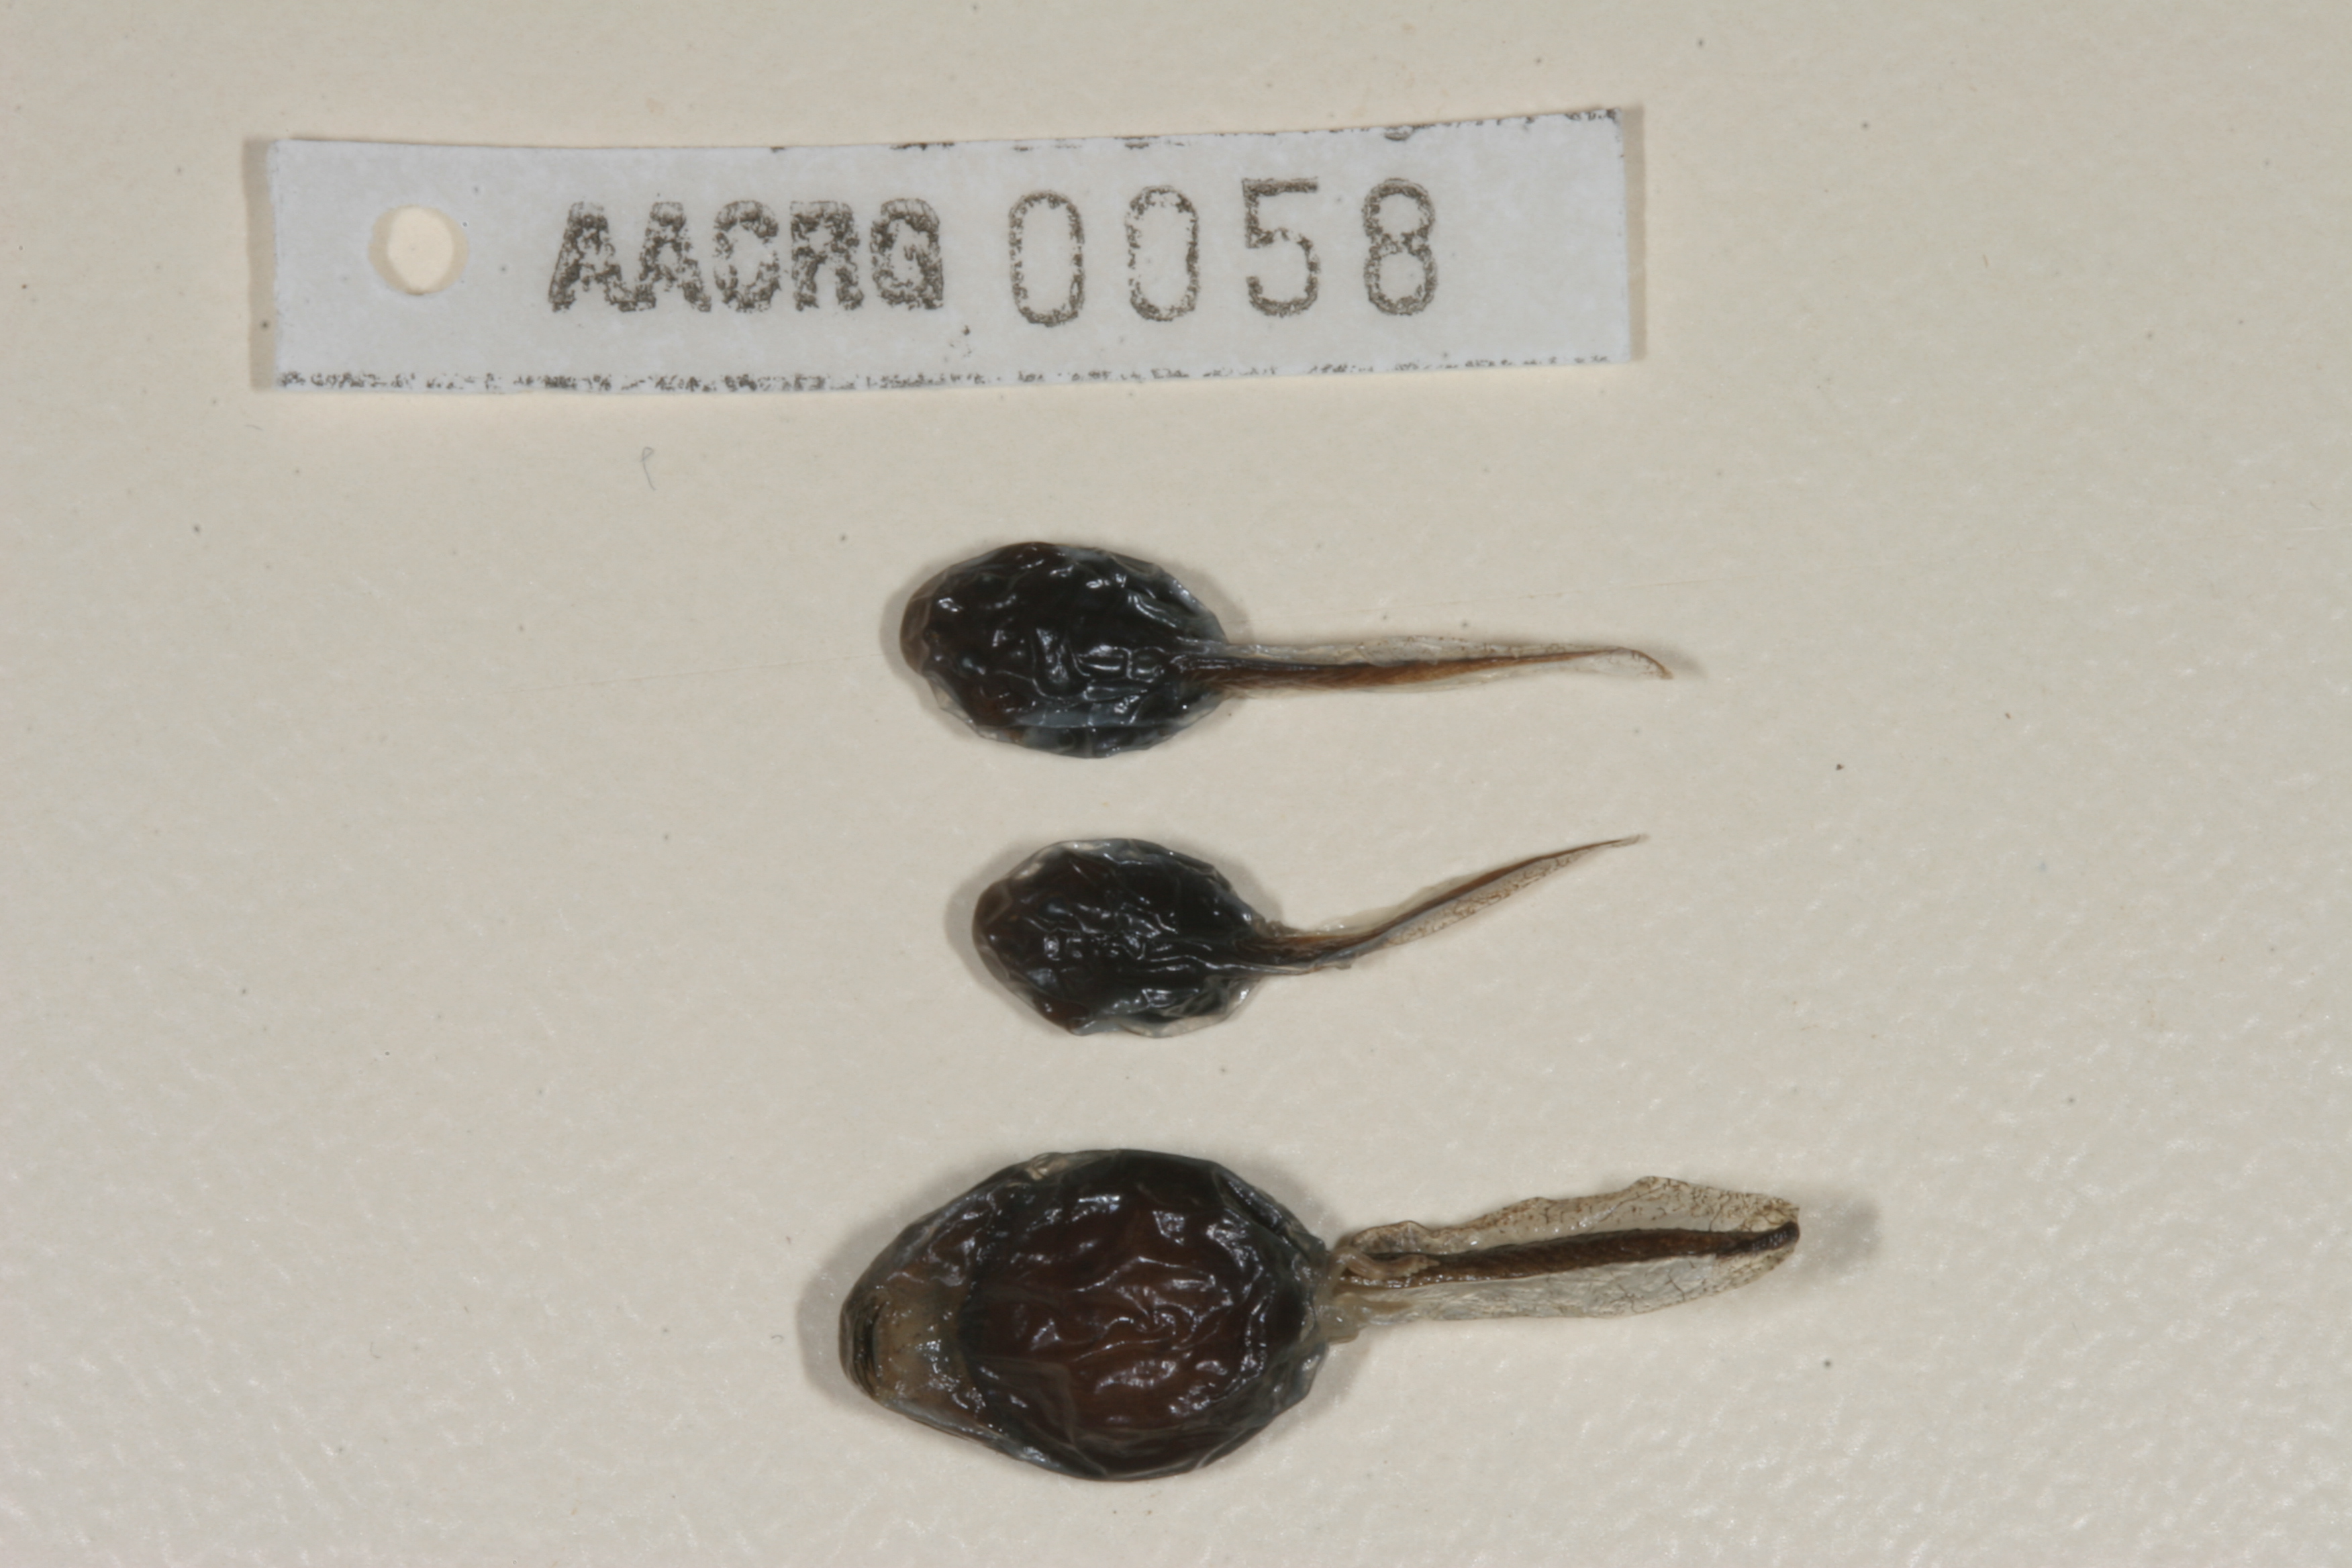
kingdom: Animalia
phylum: Chordata
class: Amphibia
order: Anura
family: Bufonidae
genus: Sclerophrys
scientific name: Sclerophrys poweri
